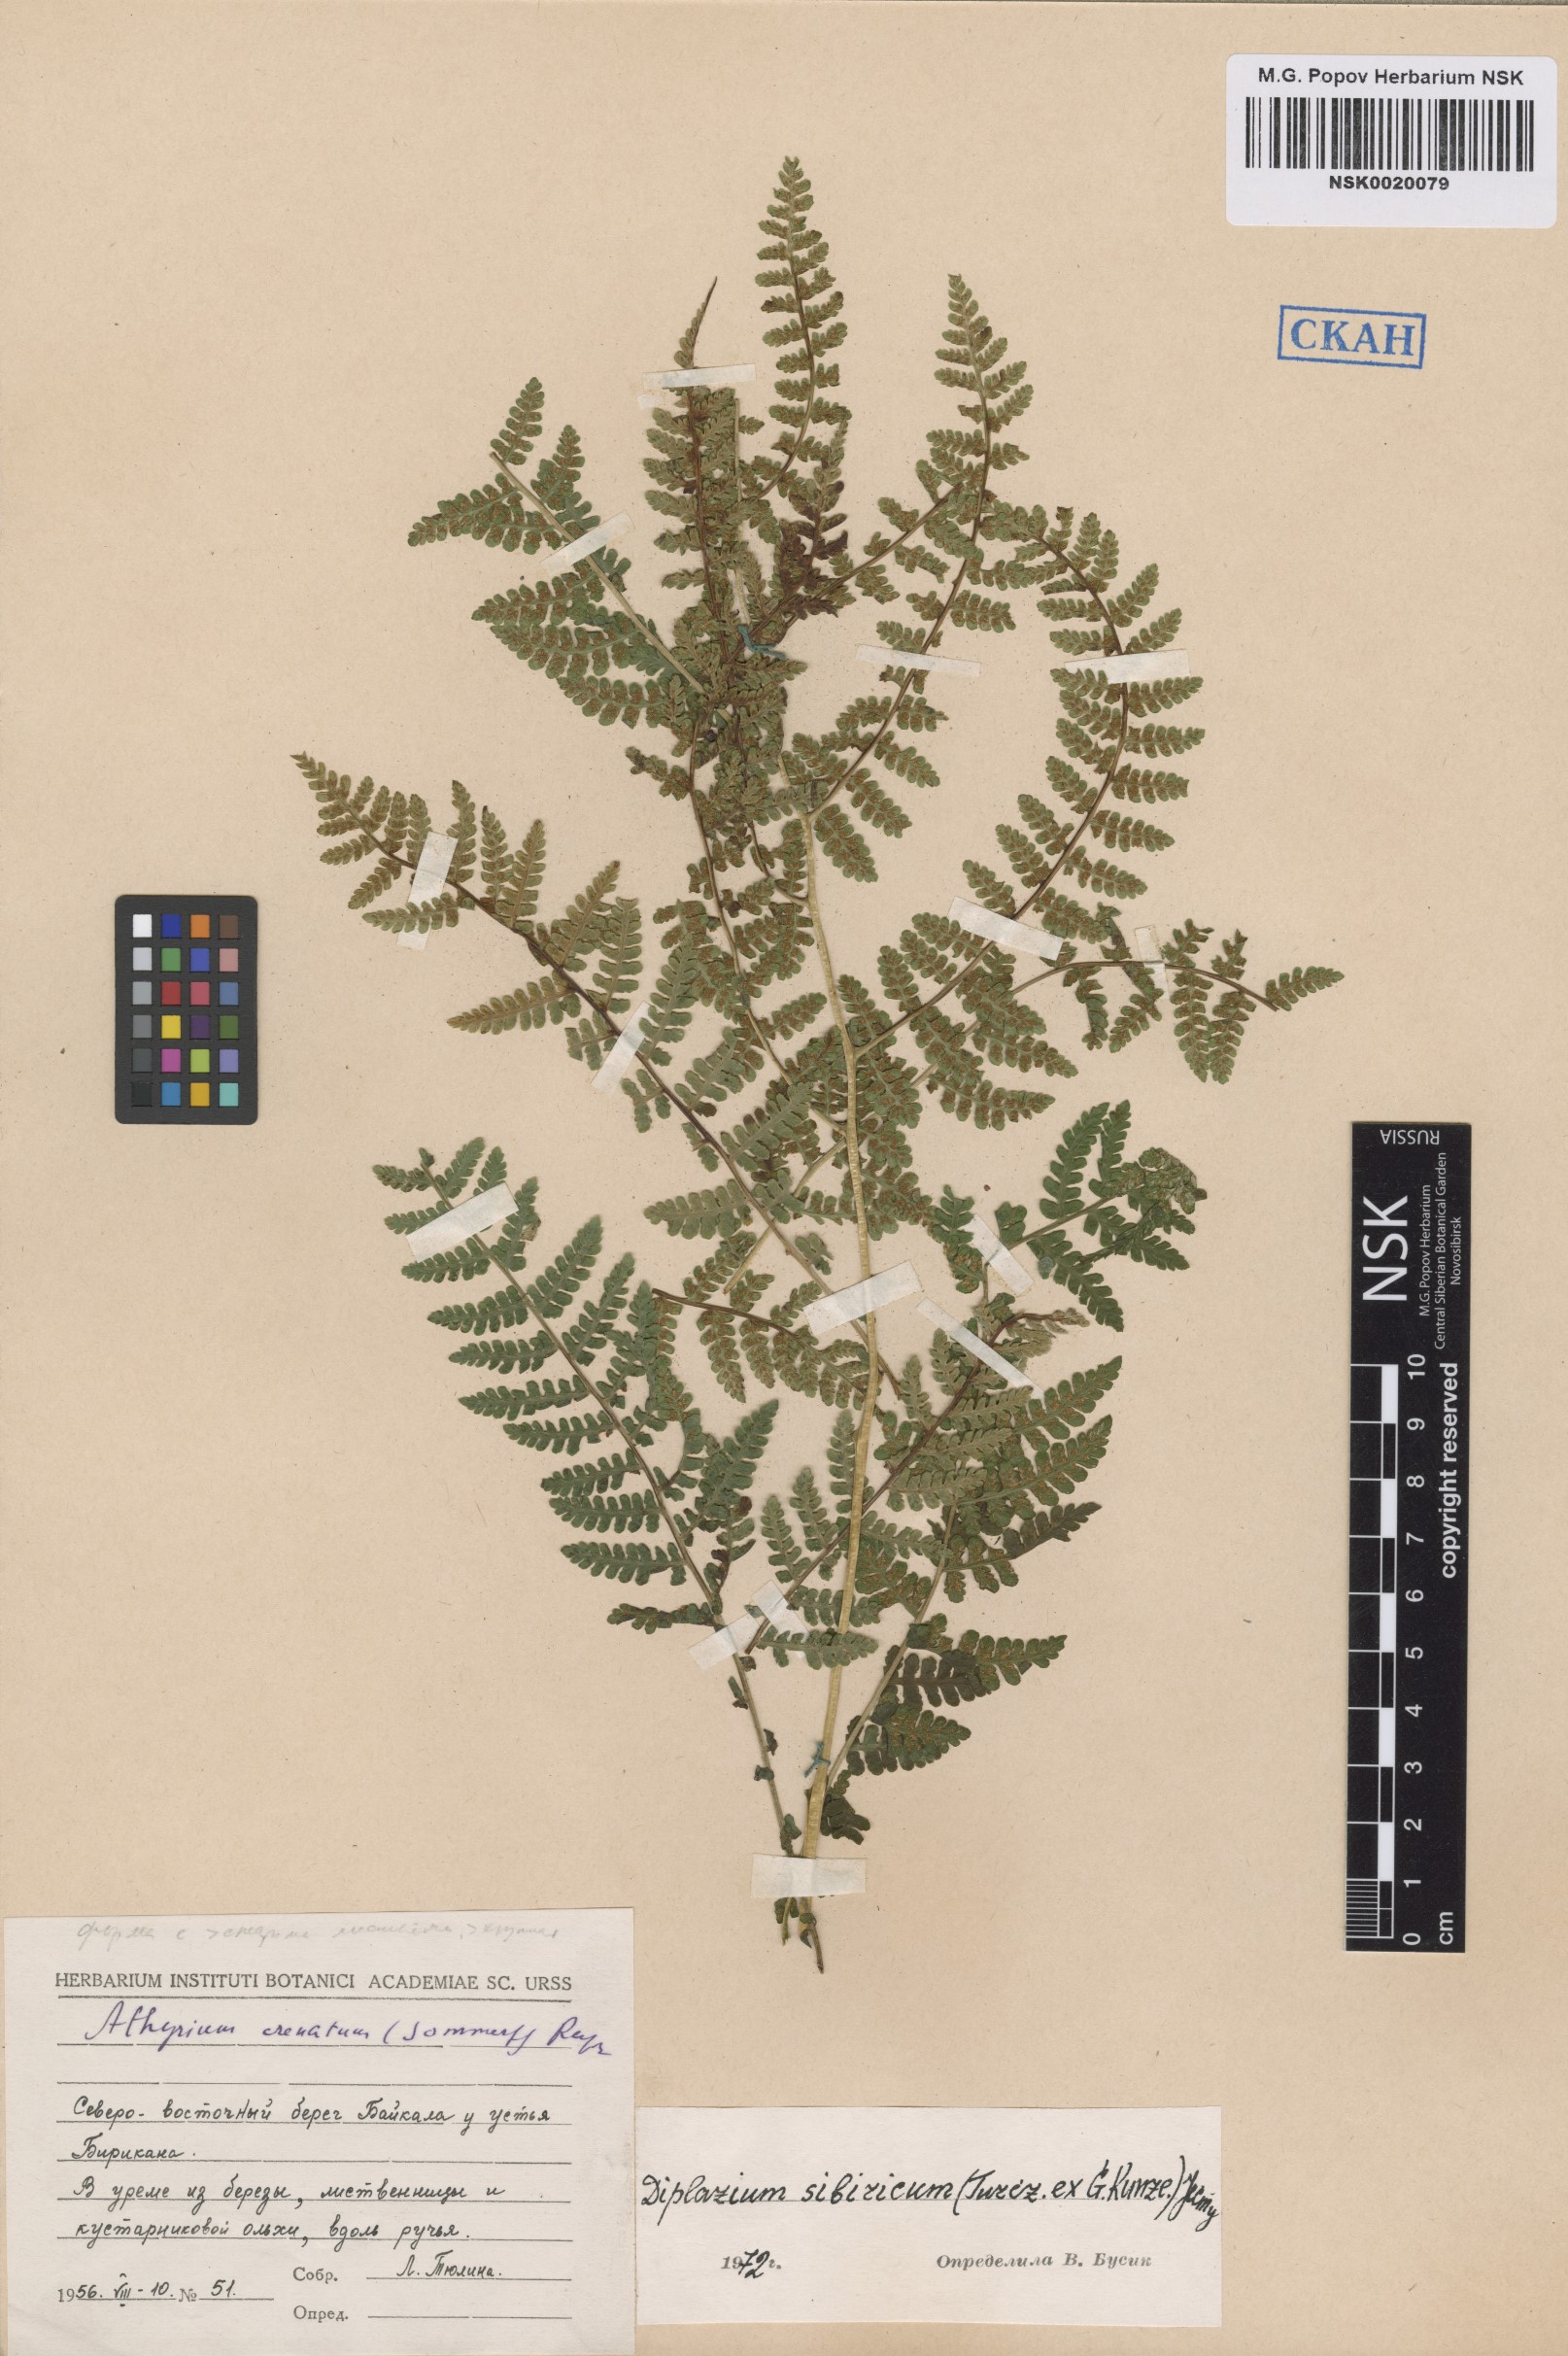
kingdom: Plantae
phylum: Tracheophyta
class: Polypodiopsida
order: Polypodiales
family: Athyriaceae
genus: Diplazium
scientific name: Diplazium sibiricum
